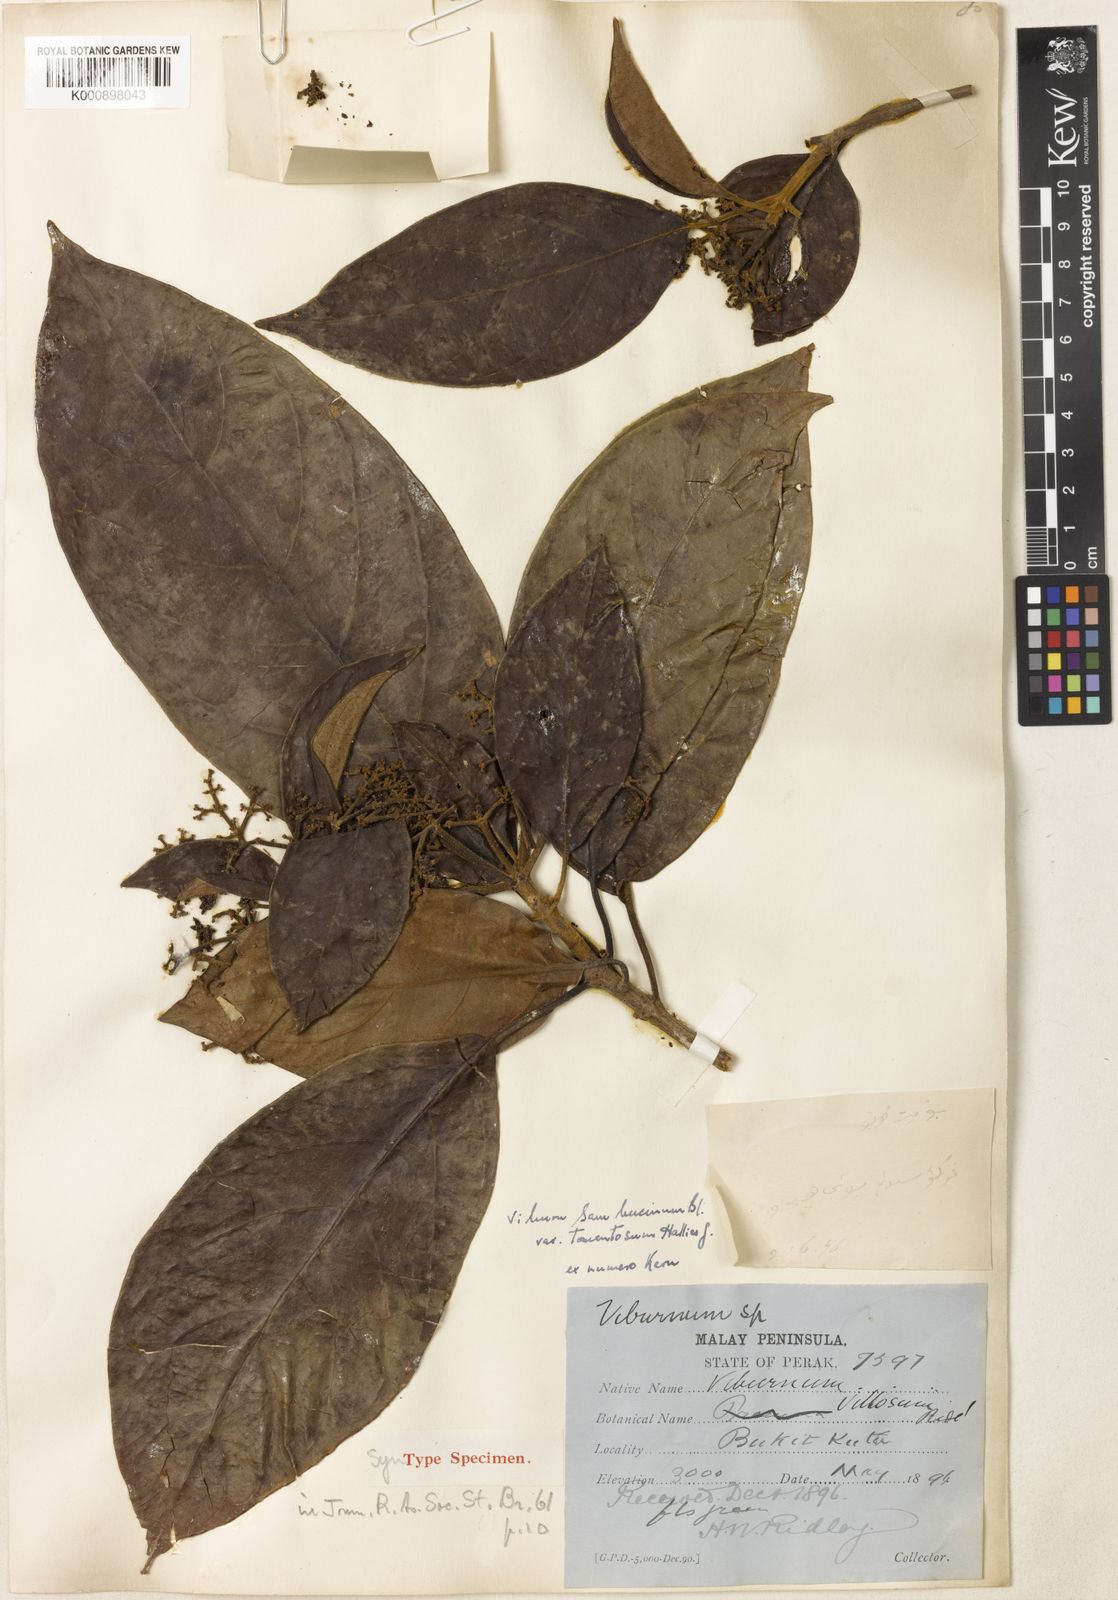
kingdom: Plantae
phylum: Tracheophyta
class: Magnoliopsida
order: Dipsacales
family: Viburnaceae
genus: Viburnum
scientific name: Viburnum sambucinum
